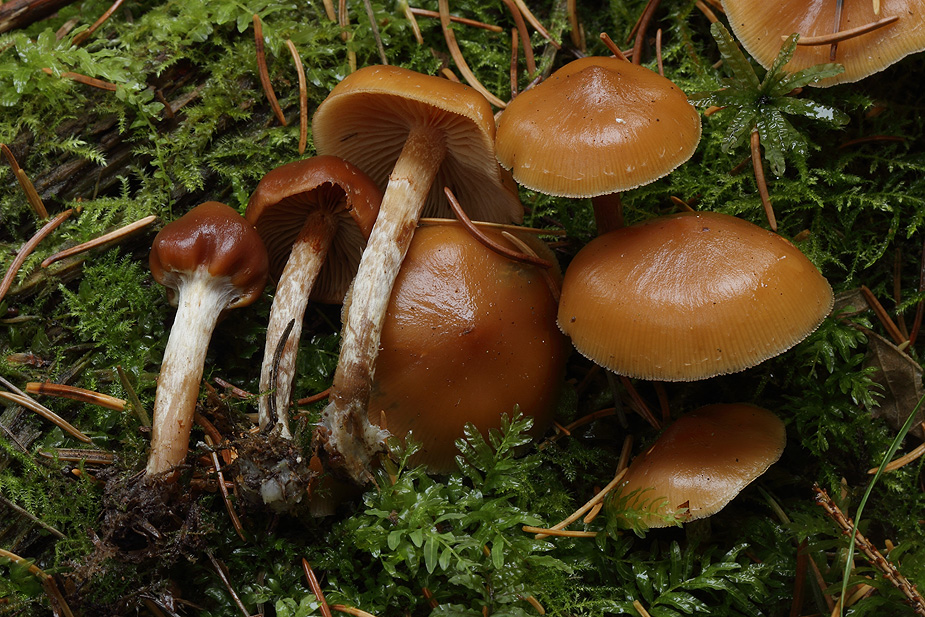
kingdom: Fungi
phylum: Basidiomycota
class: Agaricomycetes
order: Agaricales
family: Hymenogastraceae
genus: Galerina
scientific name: Galerina sideroides
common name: træflis-hjelmhat
